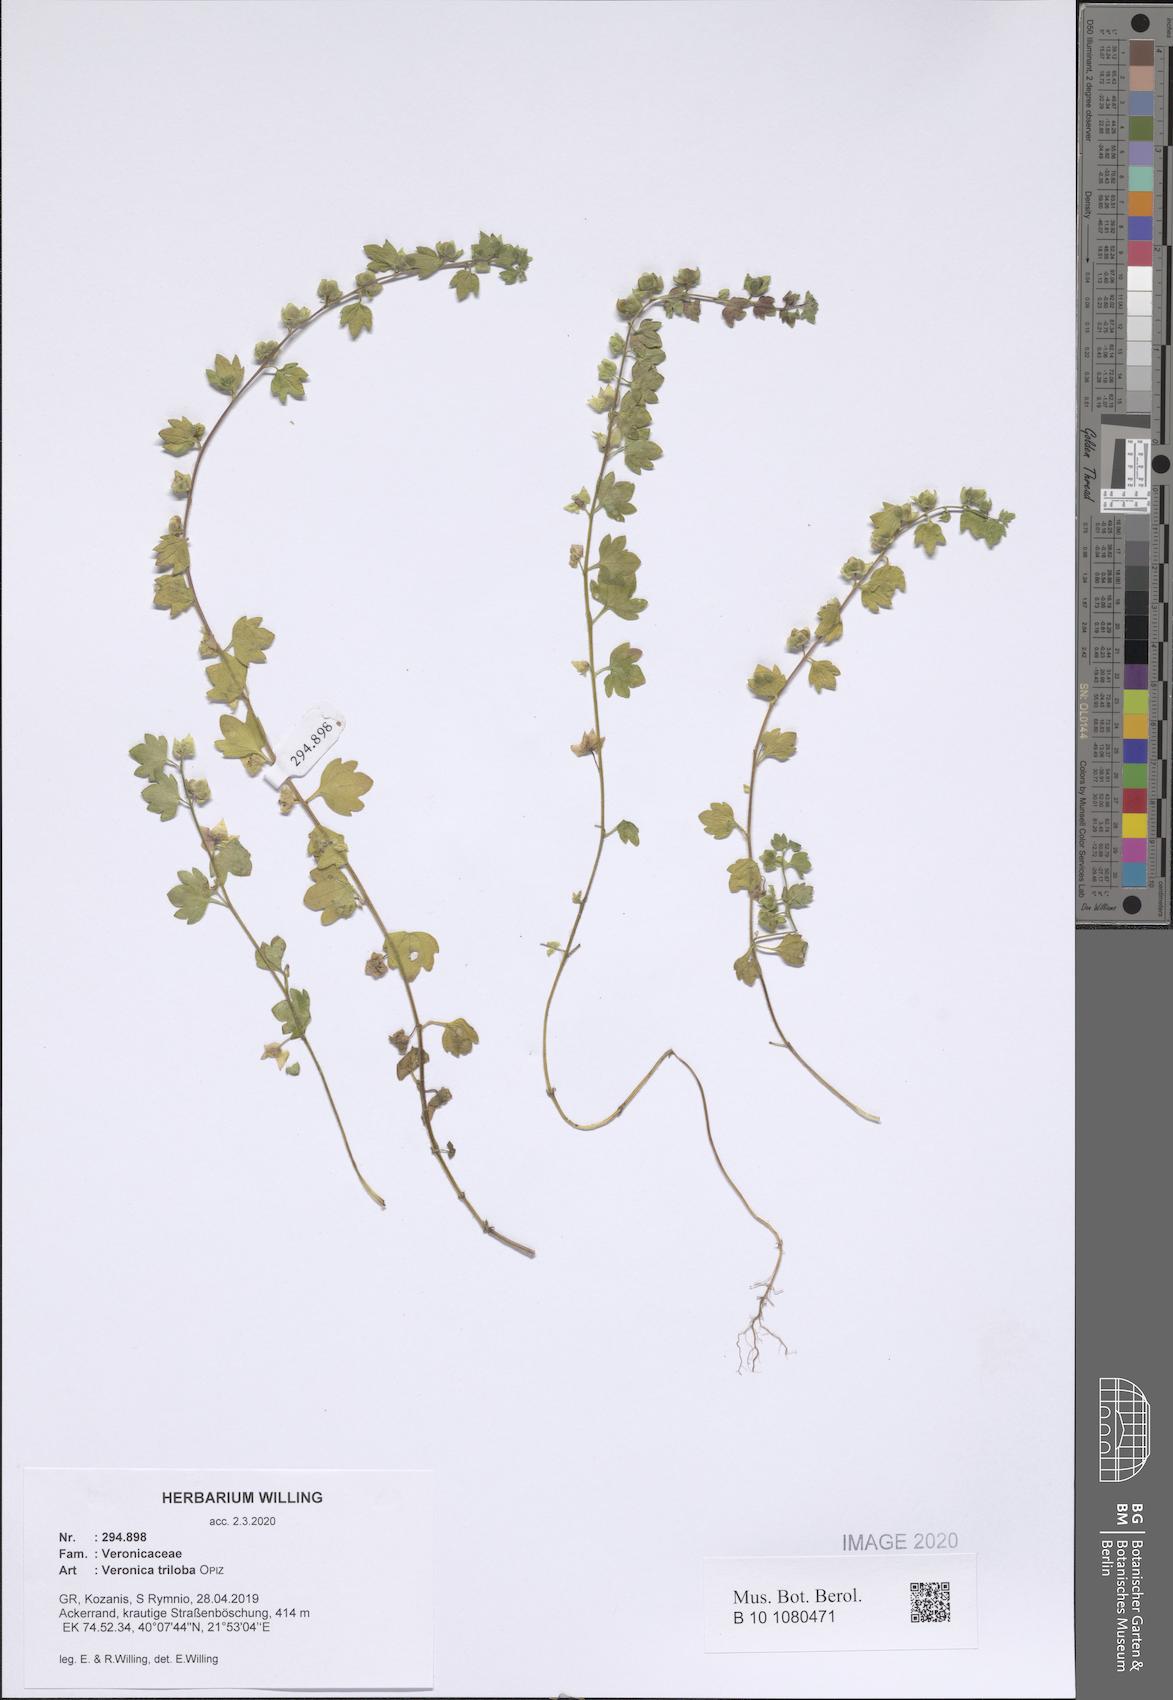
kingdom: Plantae
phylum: Tracheophyta
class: Magnoliopsida
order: Lamiales
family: Plantaginaceae
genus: Veronica
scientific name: Veronica triloba
